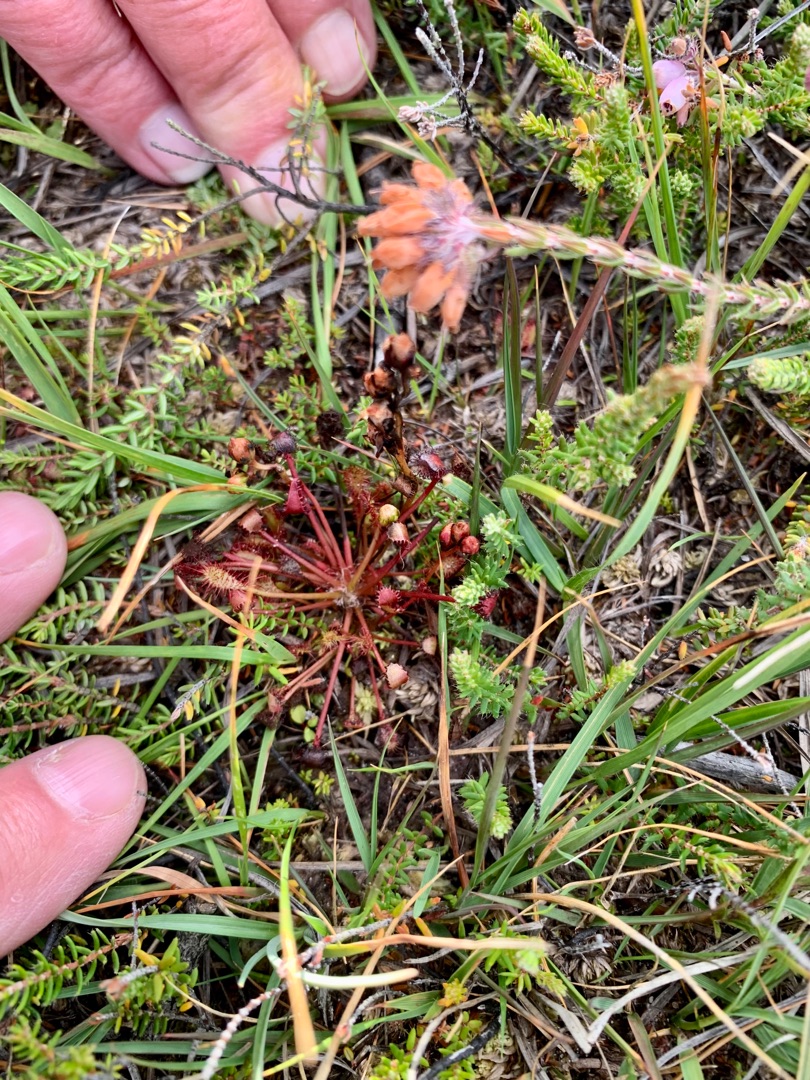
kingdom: Plantae
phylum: Tracheophyta
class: Magnoliopsida
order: Caryophyllales
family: Droseraceae
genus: Drosera
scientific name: Drosera intermedia
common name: Liden soldug
